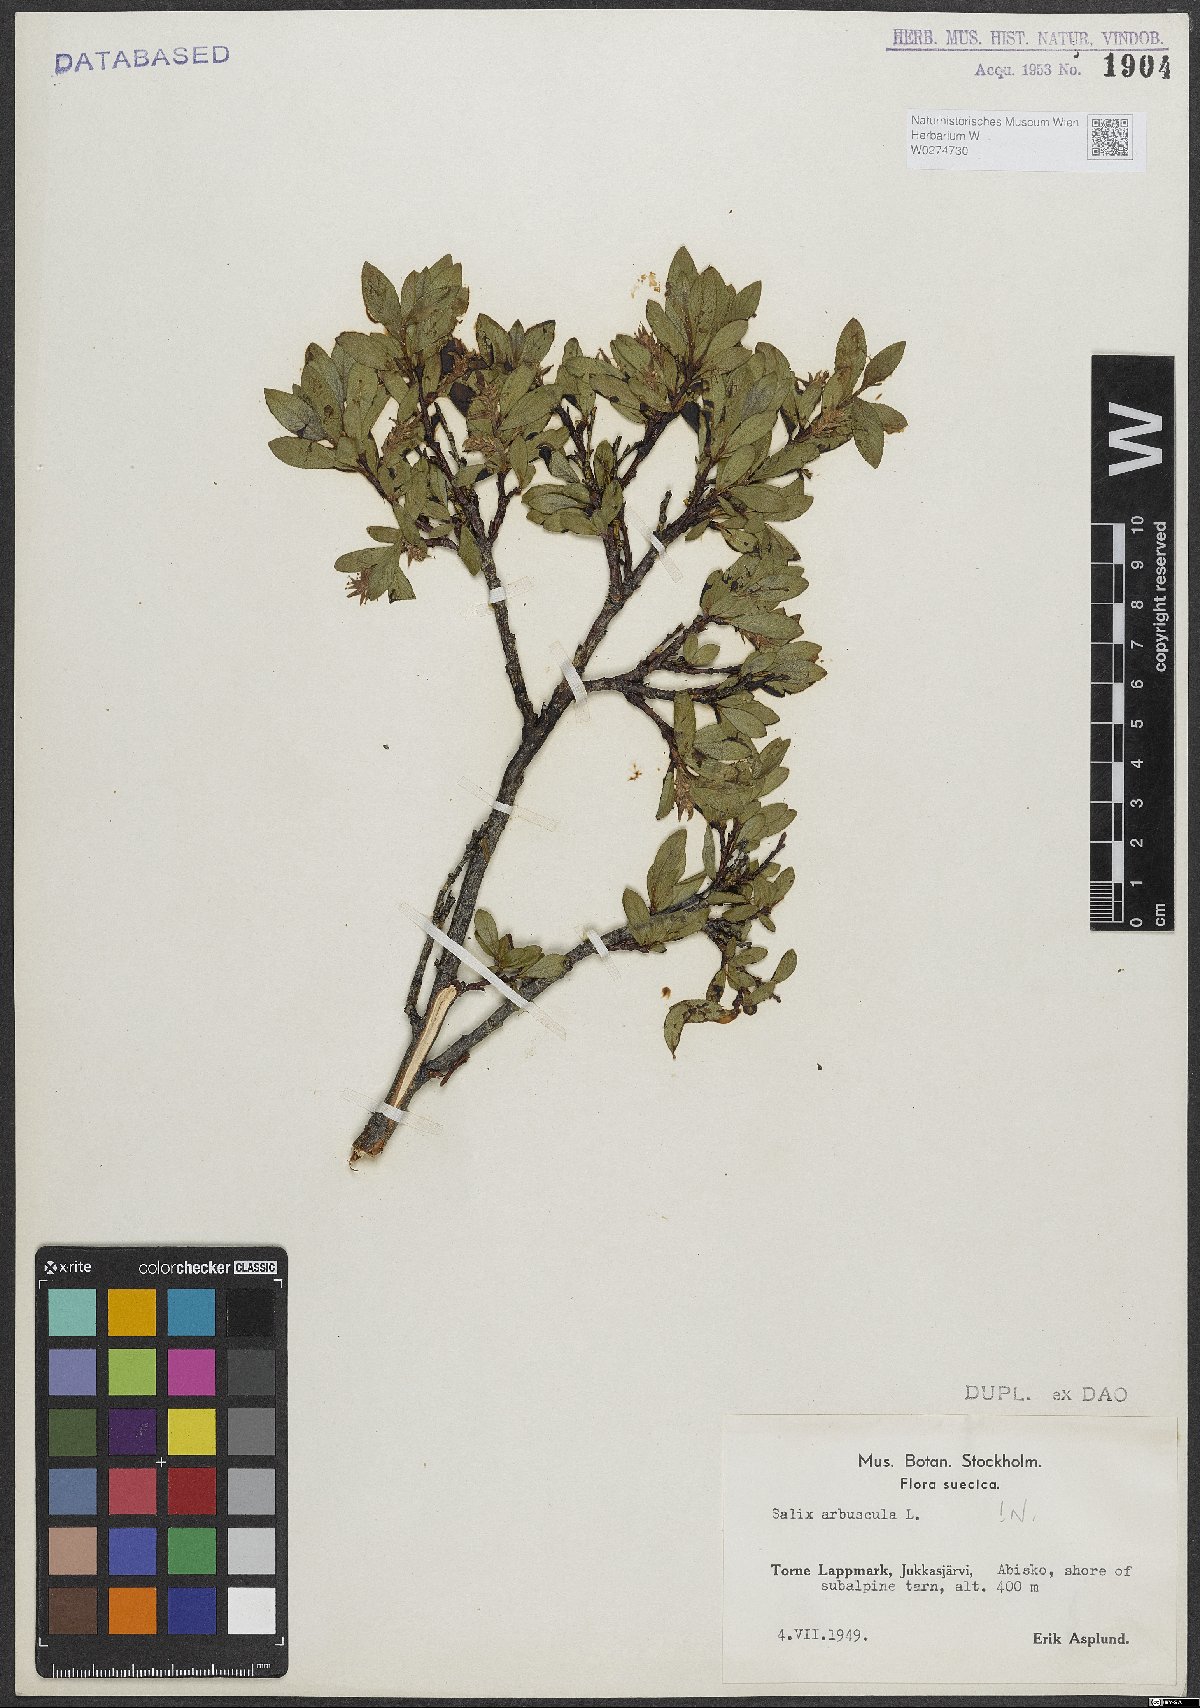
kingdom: Plantae
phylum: Tracheophyta
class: Magnoliopsida
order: Malpighiales
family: Salicaceae
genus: Salix
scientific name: Salix arbuscula
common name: Mountain willow
